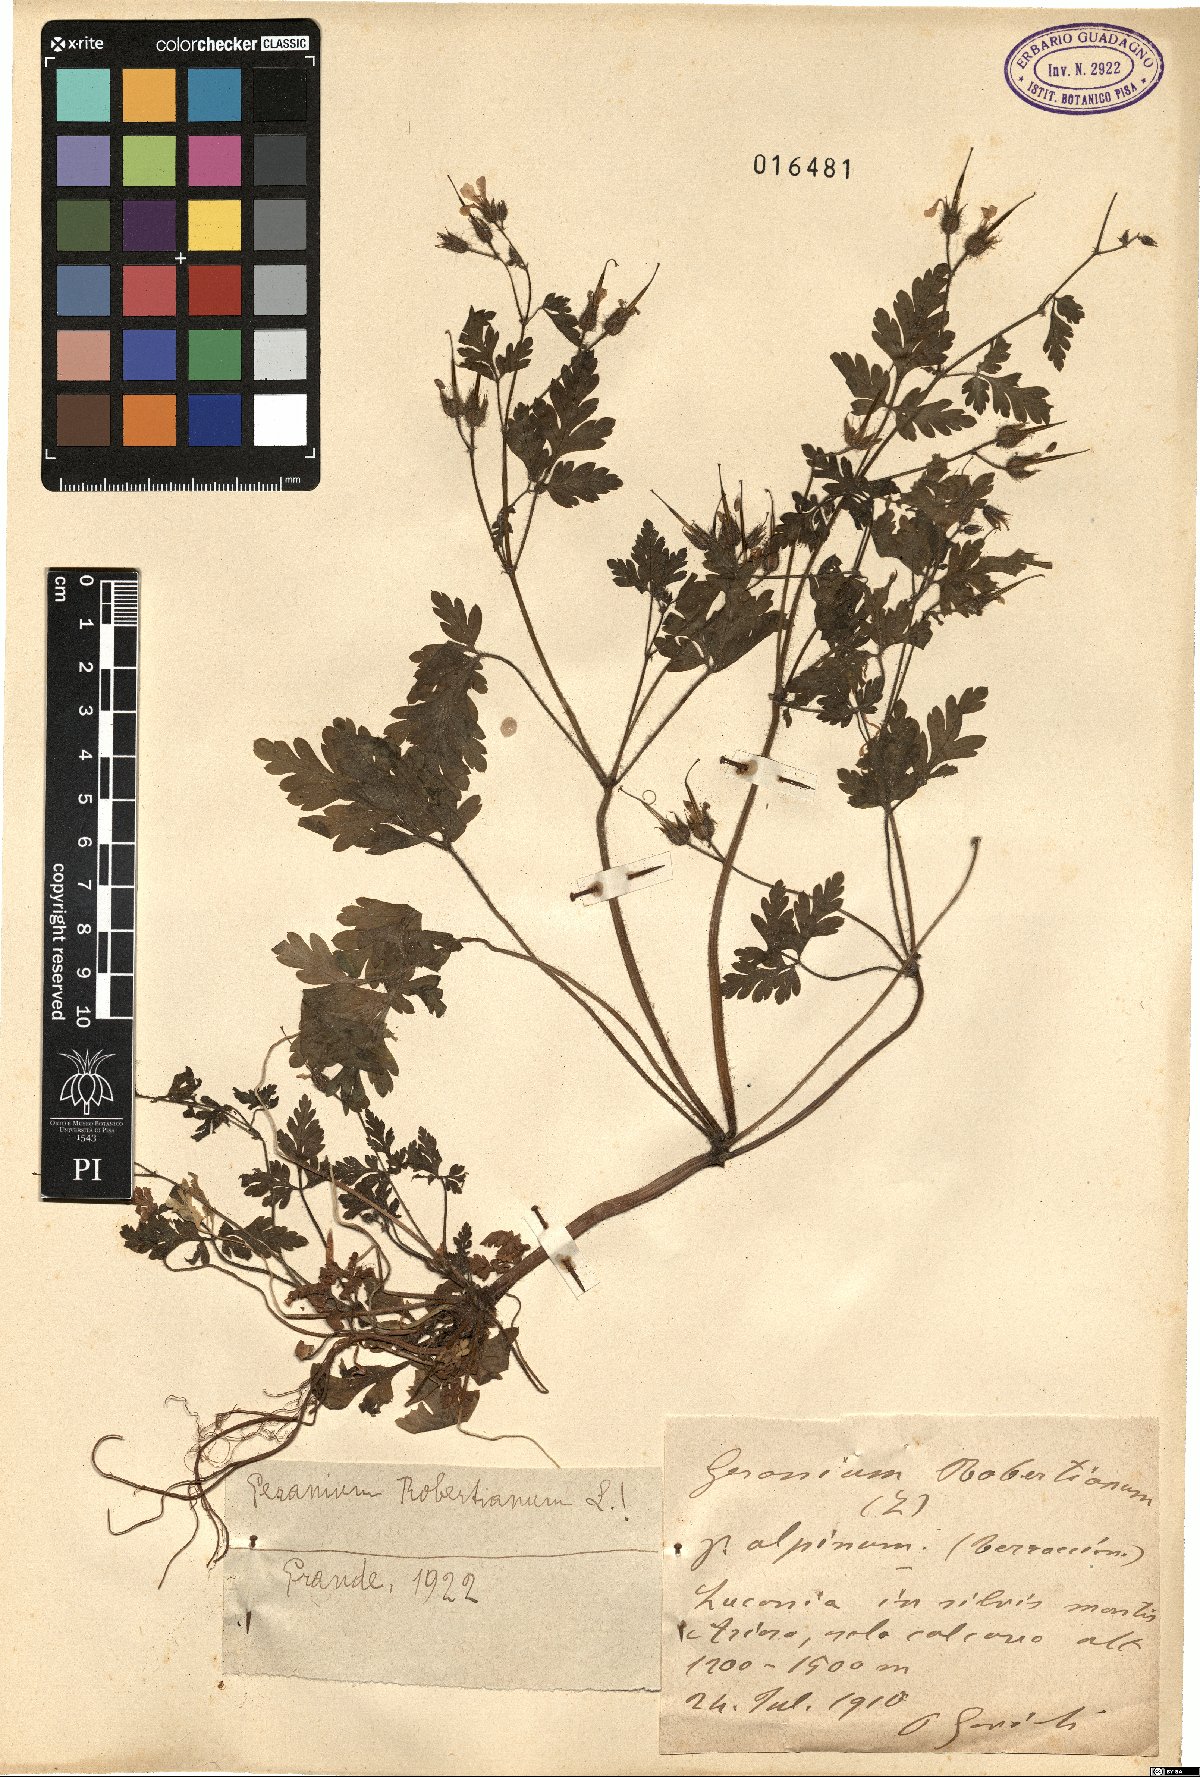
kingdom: Plantae
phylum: Tracheophyta
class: Magnoliopsida
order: Geraniales
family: Geraniaceae
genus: Geranium
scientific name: Geranium robertianum
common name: Herb-robert
